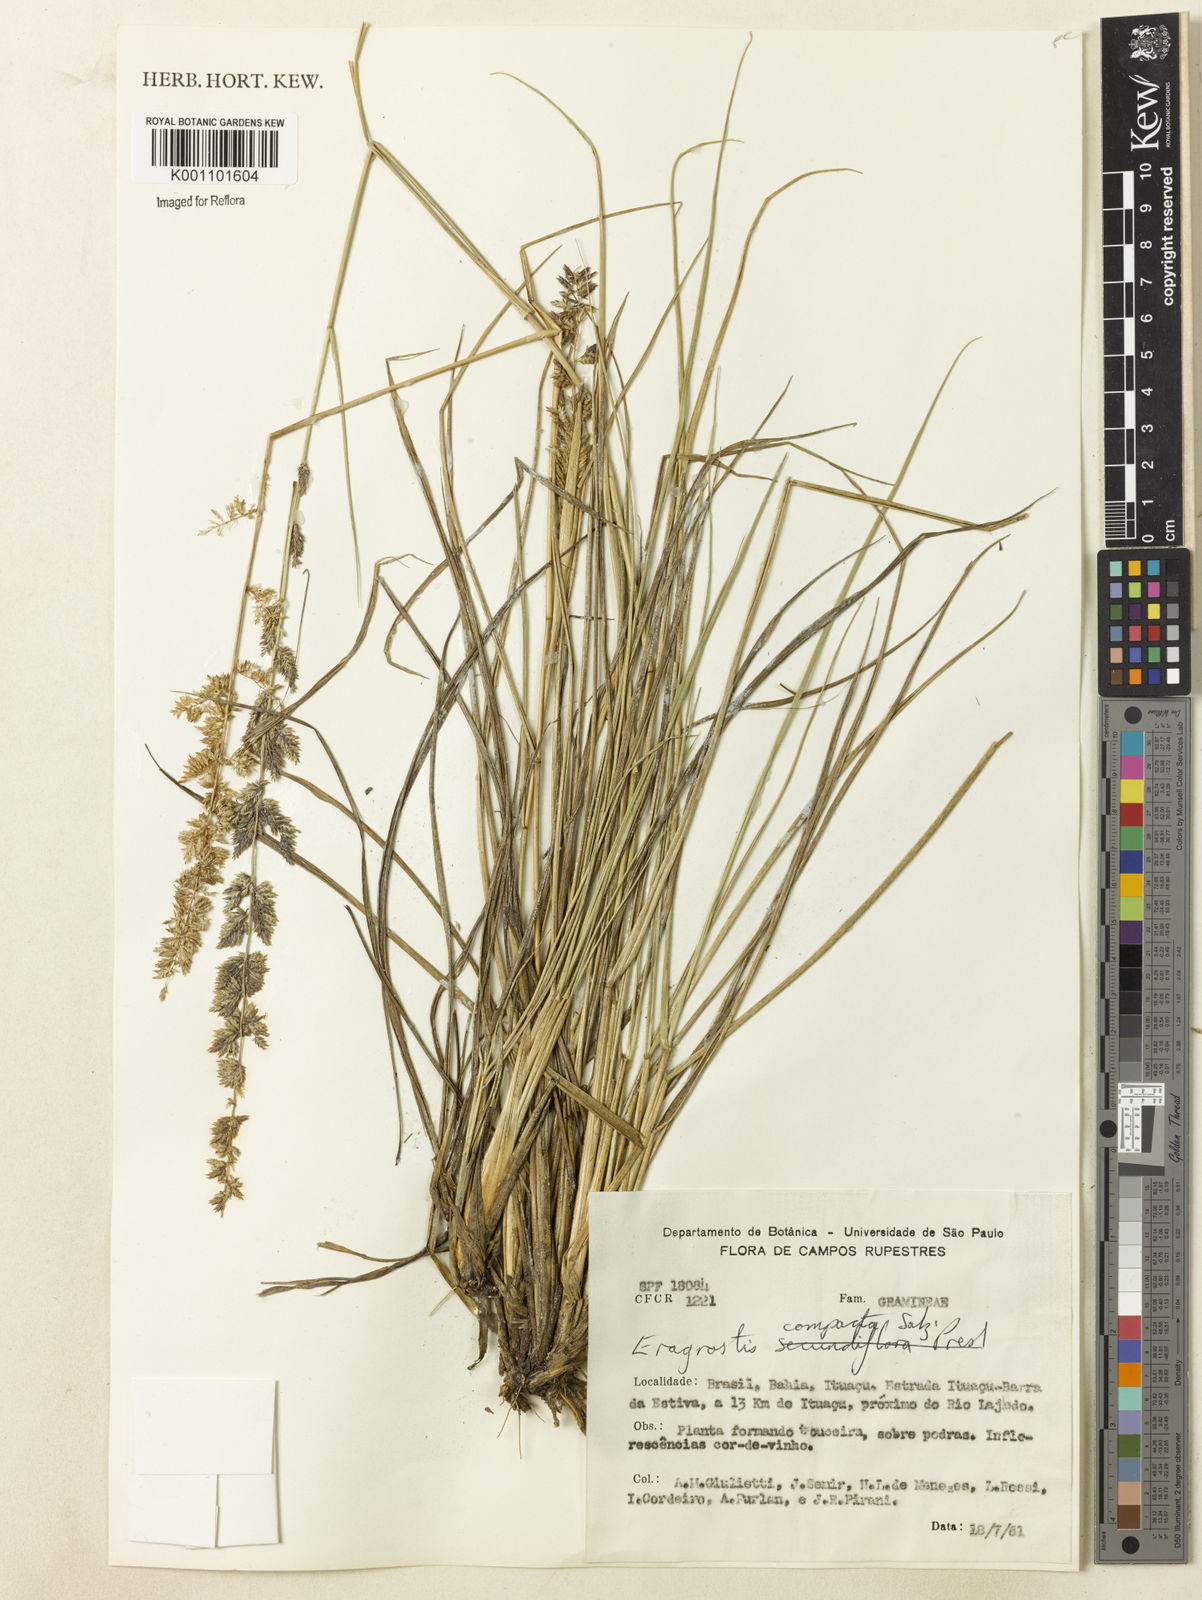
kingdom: Plantae
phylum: Tracheophyta
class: Liliopsida
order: Poales
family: Poaceae
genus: Eragrostis
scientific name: Eragrostis petrensis
